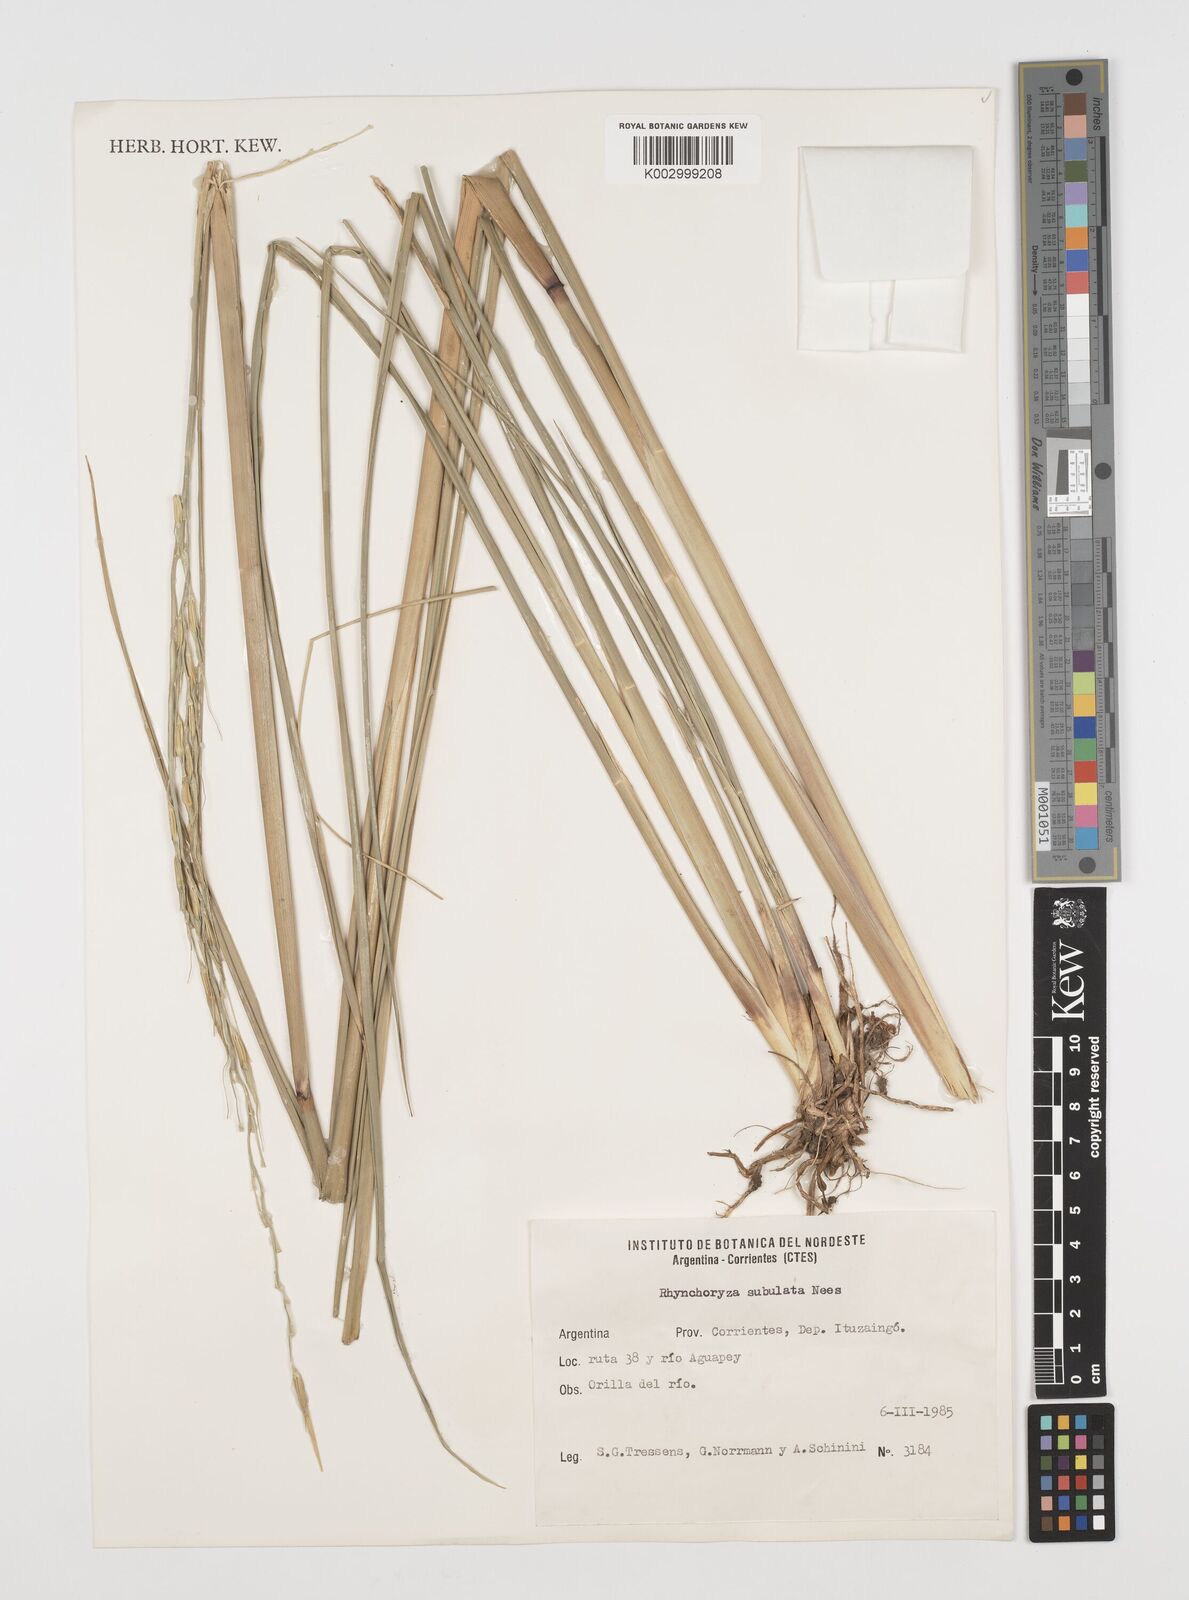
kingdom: Plantae
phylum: Tracheophyta
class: Liliopsida
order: Poales
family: Poaceae
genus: Rhynchoryza
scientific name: Rhynchoryza subulata
